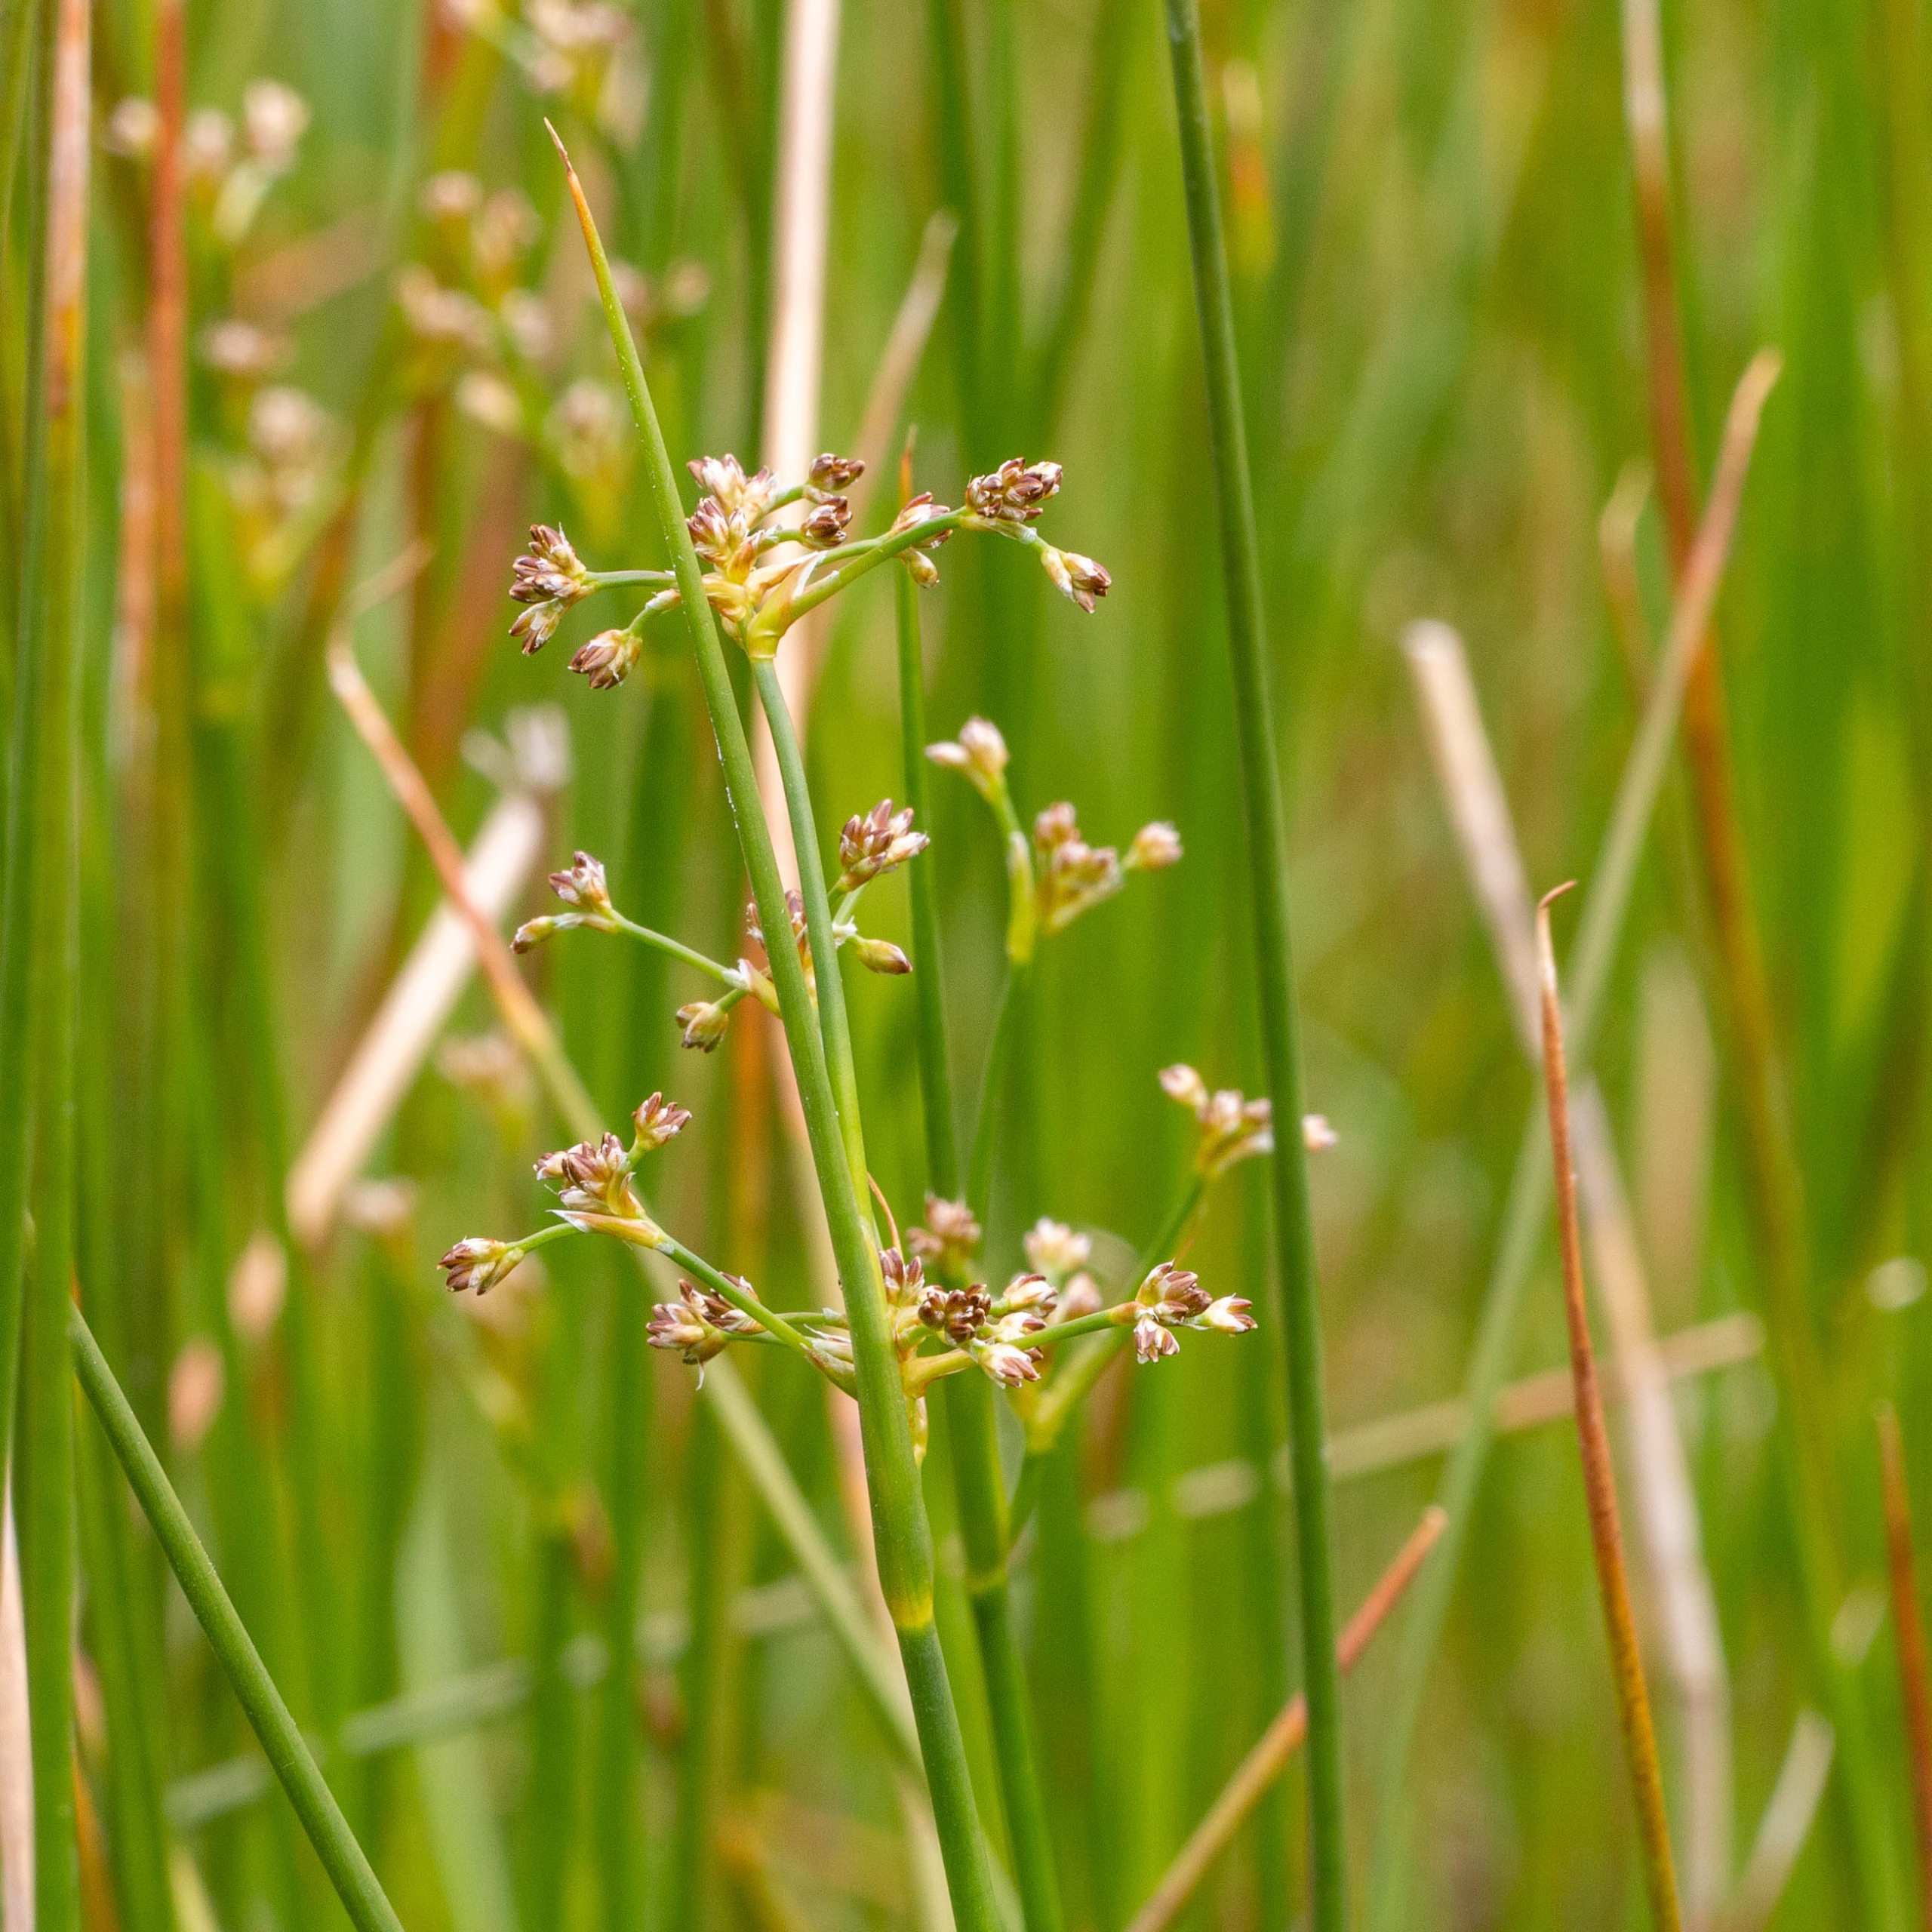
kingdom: Plantae
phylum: Tracheophyta
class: Liliopsida
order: Poales
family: Juncaceae
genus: Juncus
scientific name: Juncus subnodulosus
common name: Butblomstret siv
